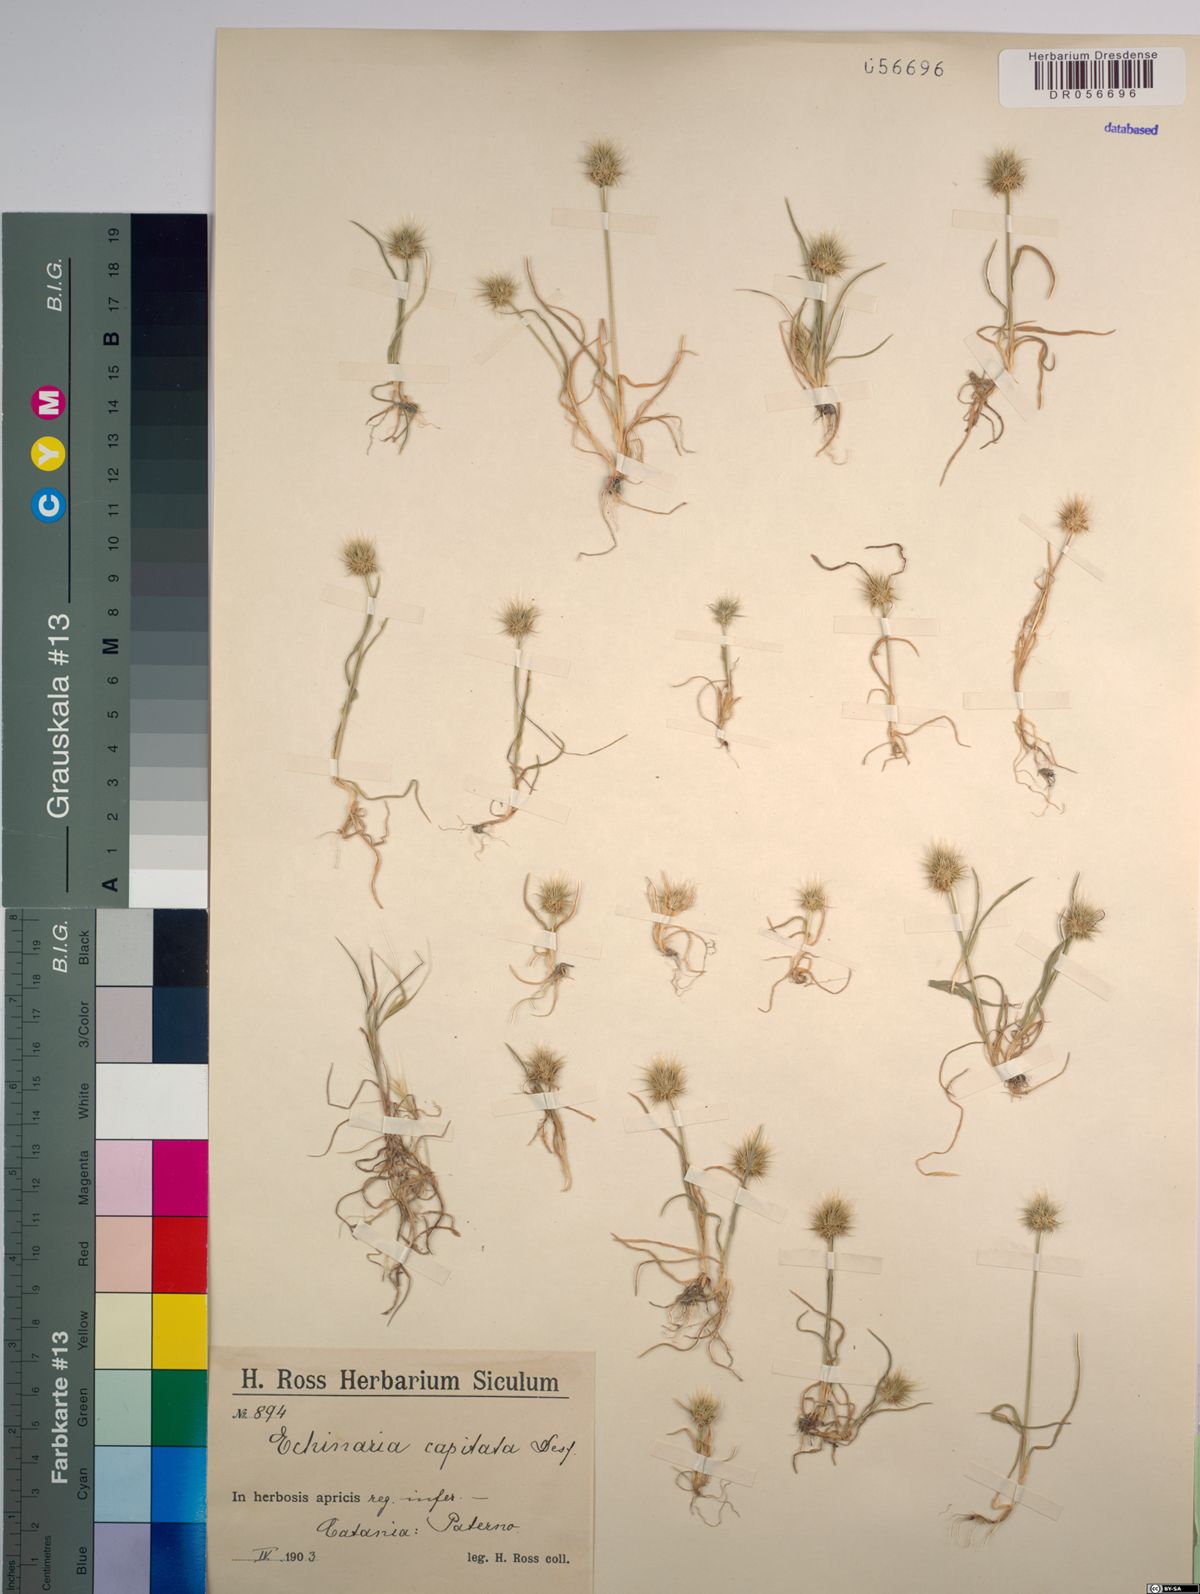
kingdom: Plantae
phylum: Tracheophyta
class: Liliopsida
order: Poales
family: Poaceae
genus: Echinaria
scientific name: Echinaria capitata
